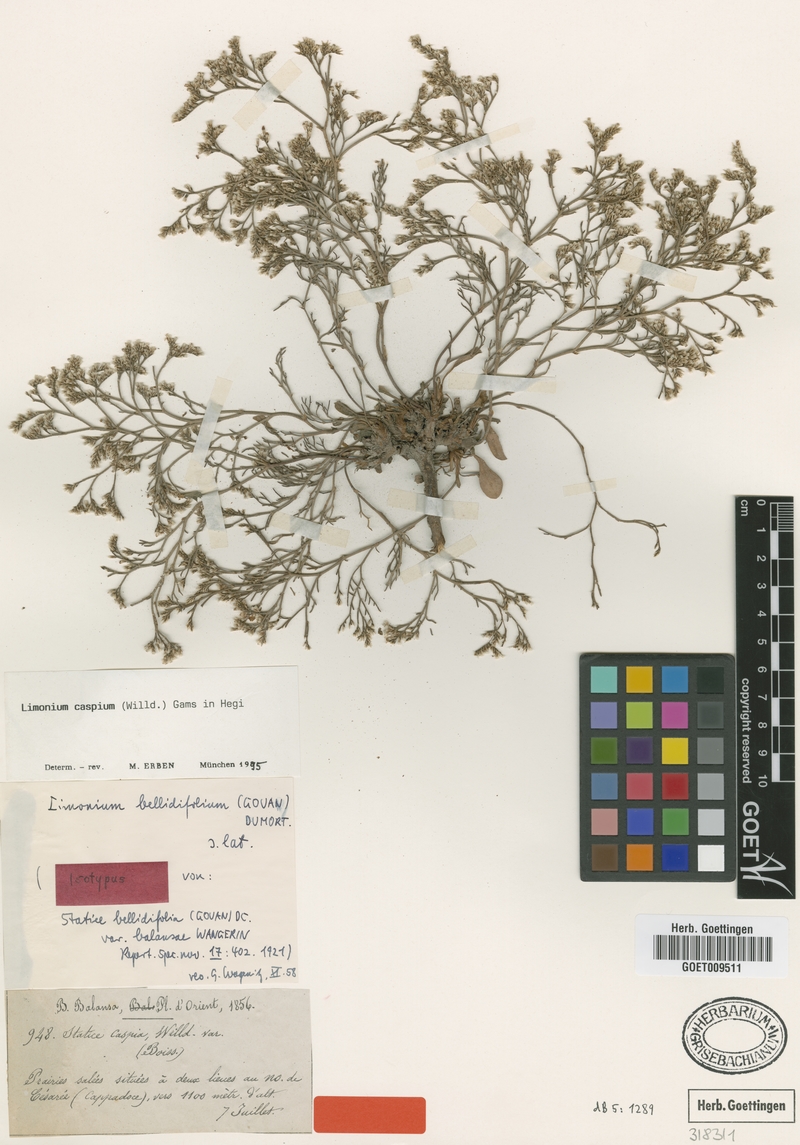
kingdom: Plantae
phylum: Tracheophyta
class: Magnoliopsida
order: Caryophyllales
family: Plumbaginaceae
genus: Limonium
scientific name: Limonium bellidifolium
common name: Matted sea-lavender
